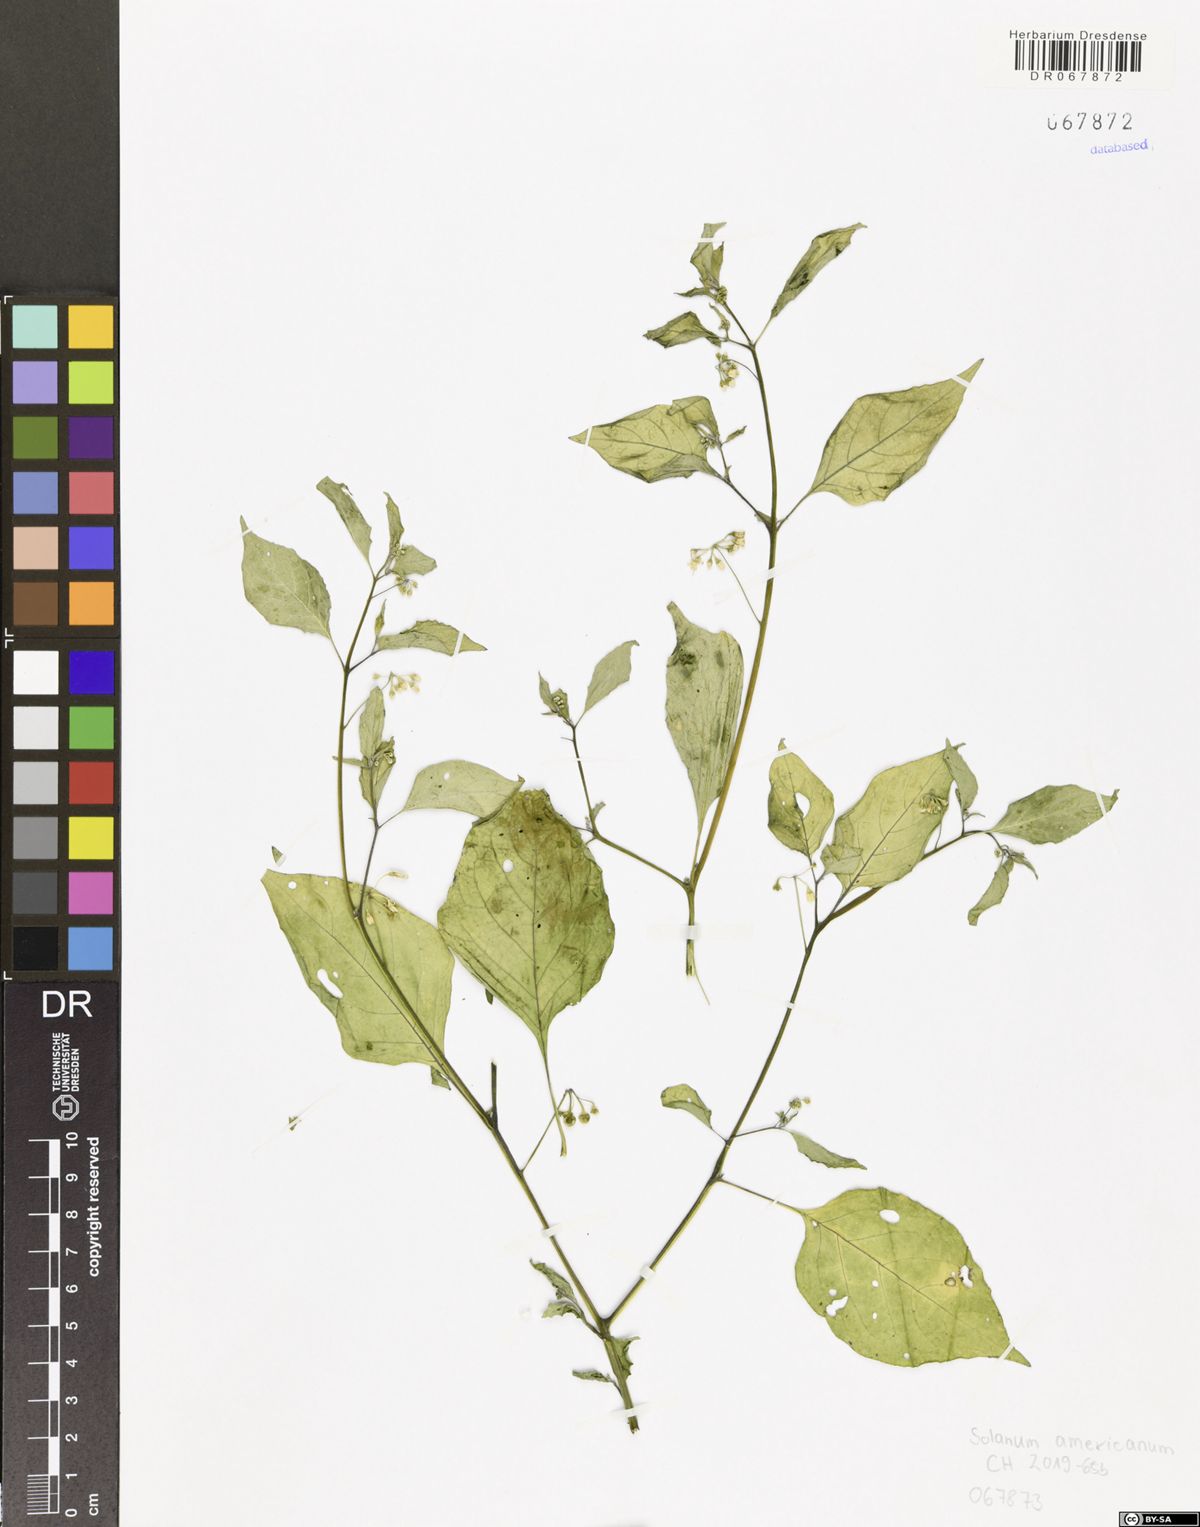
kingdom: Plantae
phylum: Tracheophyta
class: Magnoliopsida
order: Solanales
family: Solanaceae
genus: Solanum
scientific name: Solanum americanum
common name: American black nightshade
